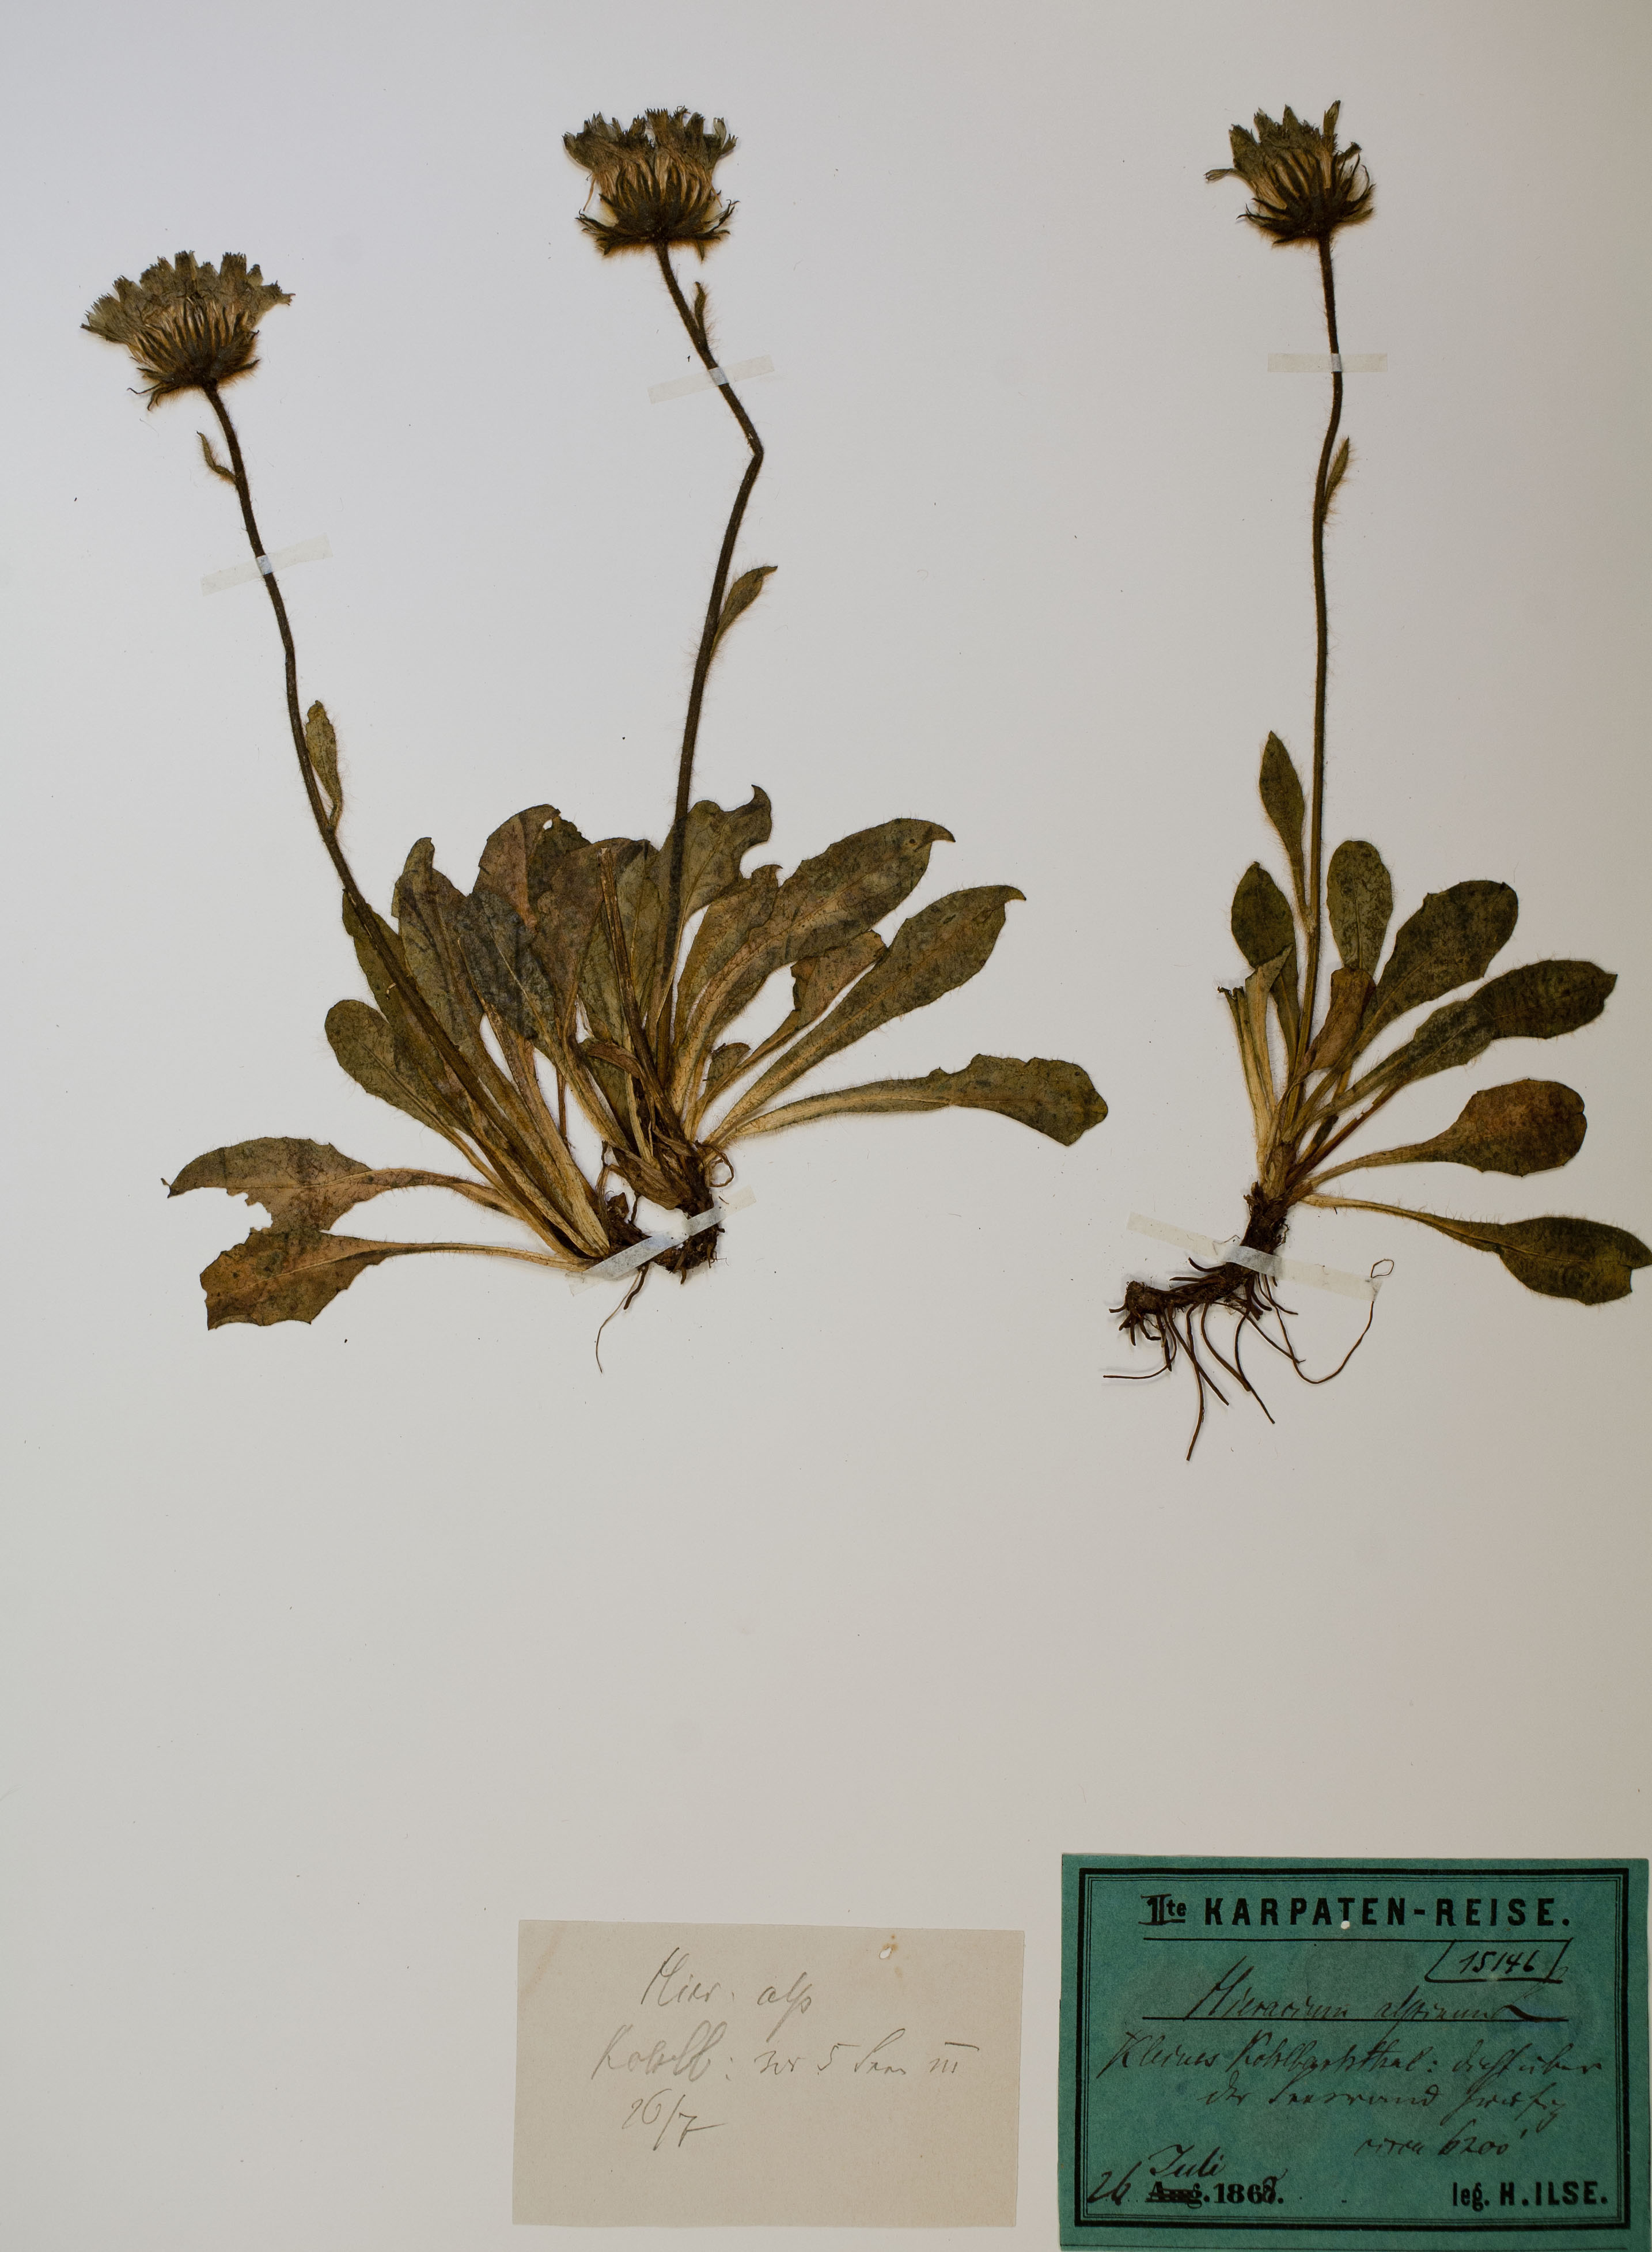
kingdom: Plantae
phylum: Tracheophyta
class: Magnoliopsida
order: Asterales
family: Asteraceae
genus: Hieracium
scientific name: Hieracium alpinum
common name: Alpine hawkweed
